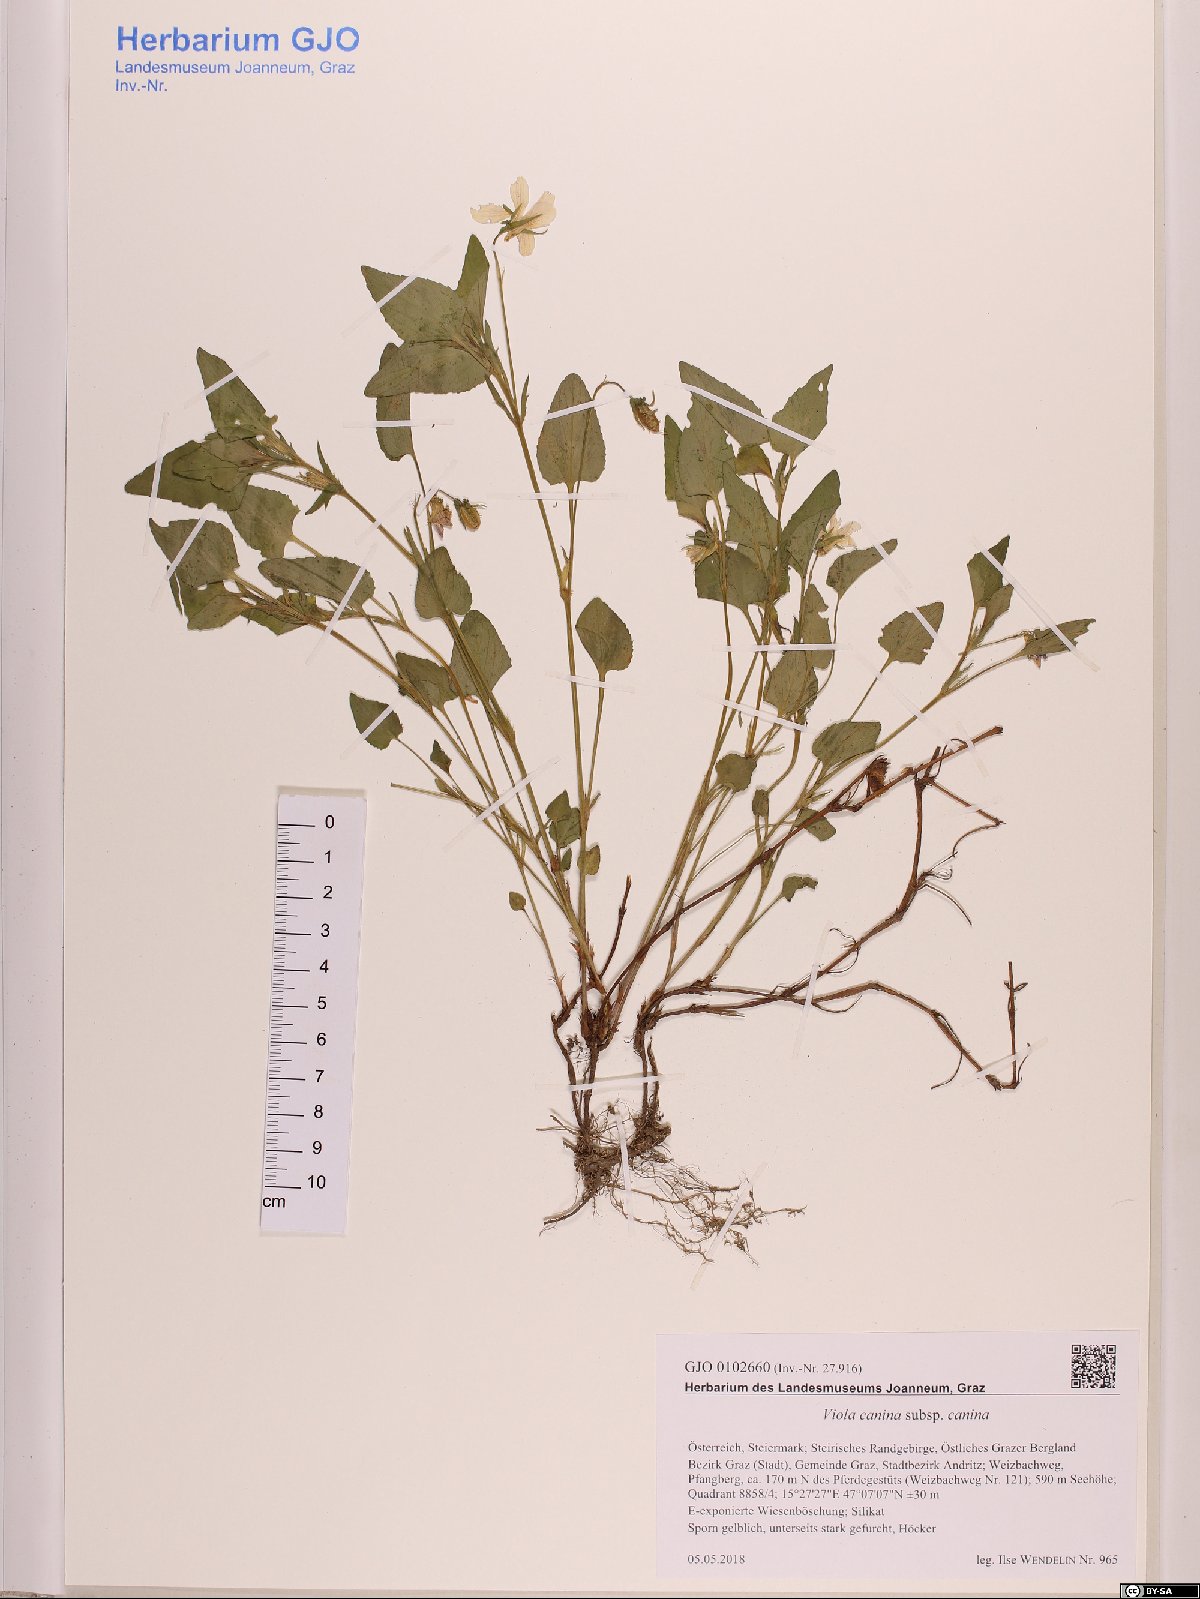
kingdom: Plantae
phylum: Tracheophyta
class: Magnoliopsida
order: Malpighiales
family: Violaceae
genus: Viola
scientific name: Viola canina
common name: Heath dog-violet
